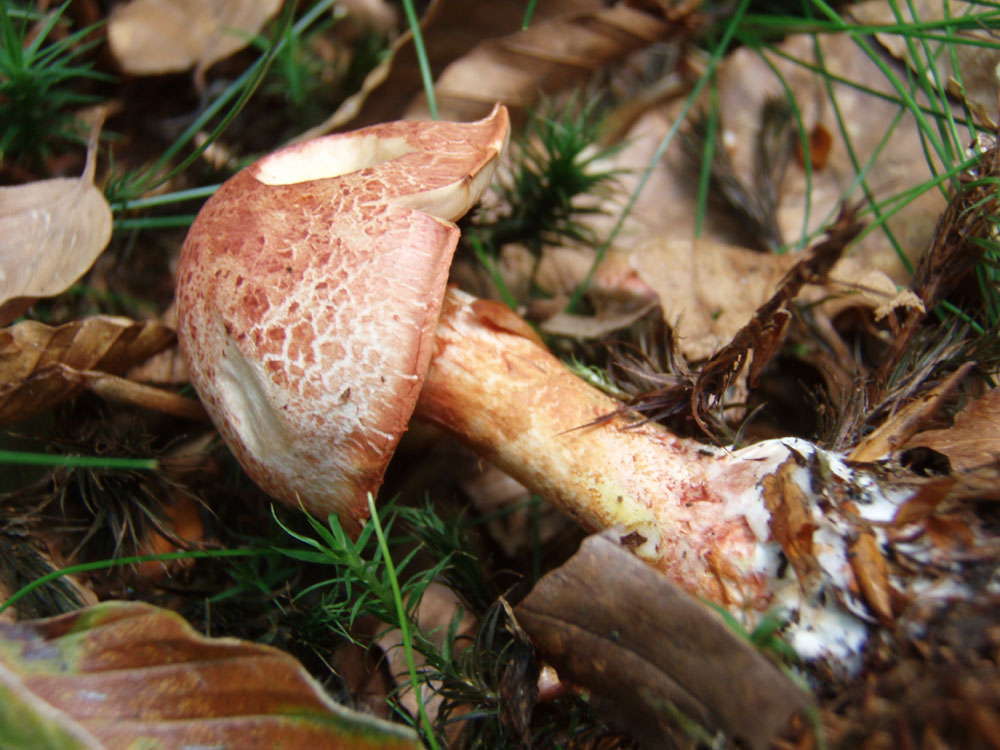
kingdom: Fungi
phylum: Basidiomycota
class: Agaricomycetes
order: Agaricales
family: Cortinariaceae
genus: Cortinarius
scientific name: Cortinarius bolaris
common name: cinnoberskællet slørhat
